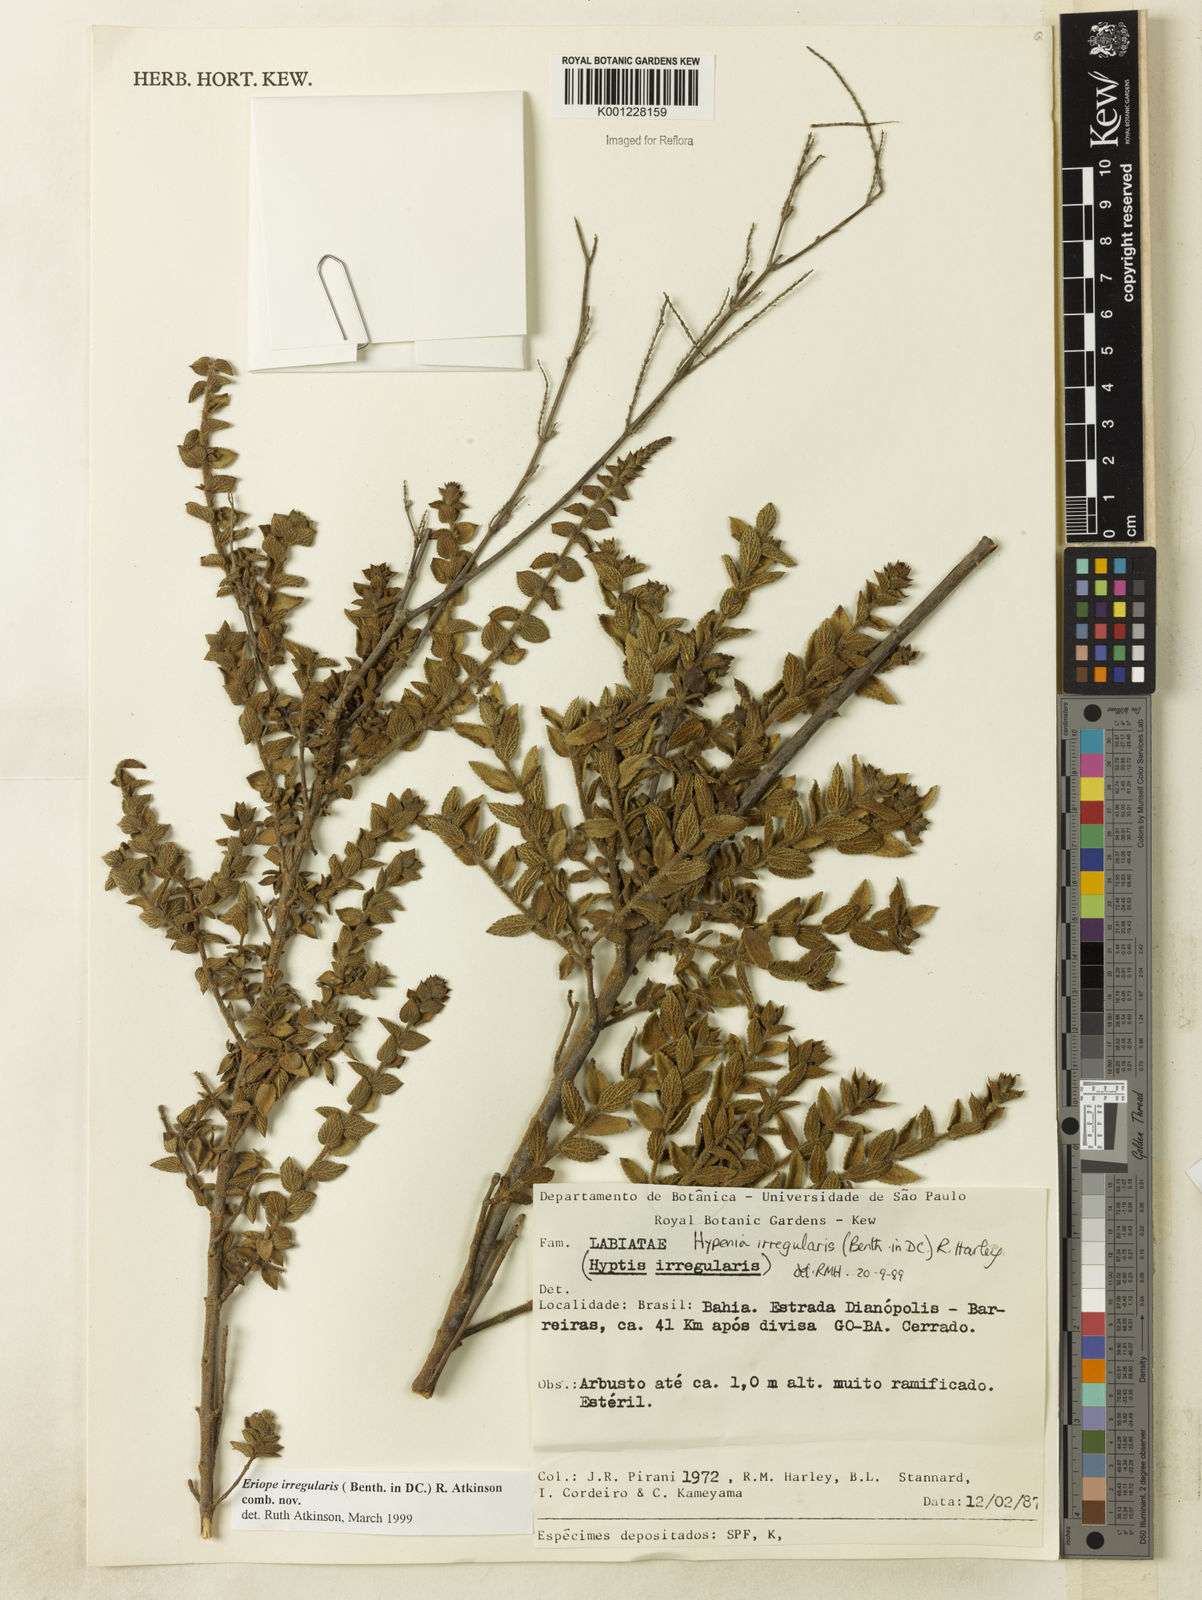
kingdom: Plantae
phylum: Tracheophyta
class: Magnoliopsida
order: Lamiales
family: Lamiaceae
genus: Hypenia
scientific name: Hypenia irregularis
